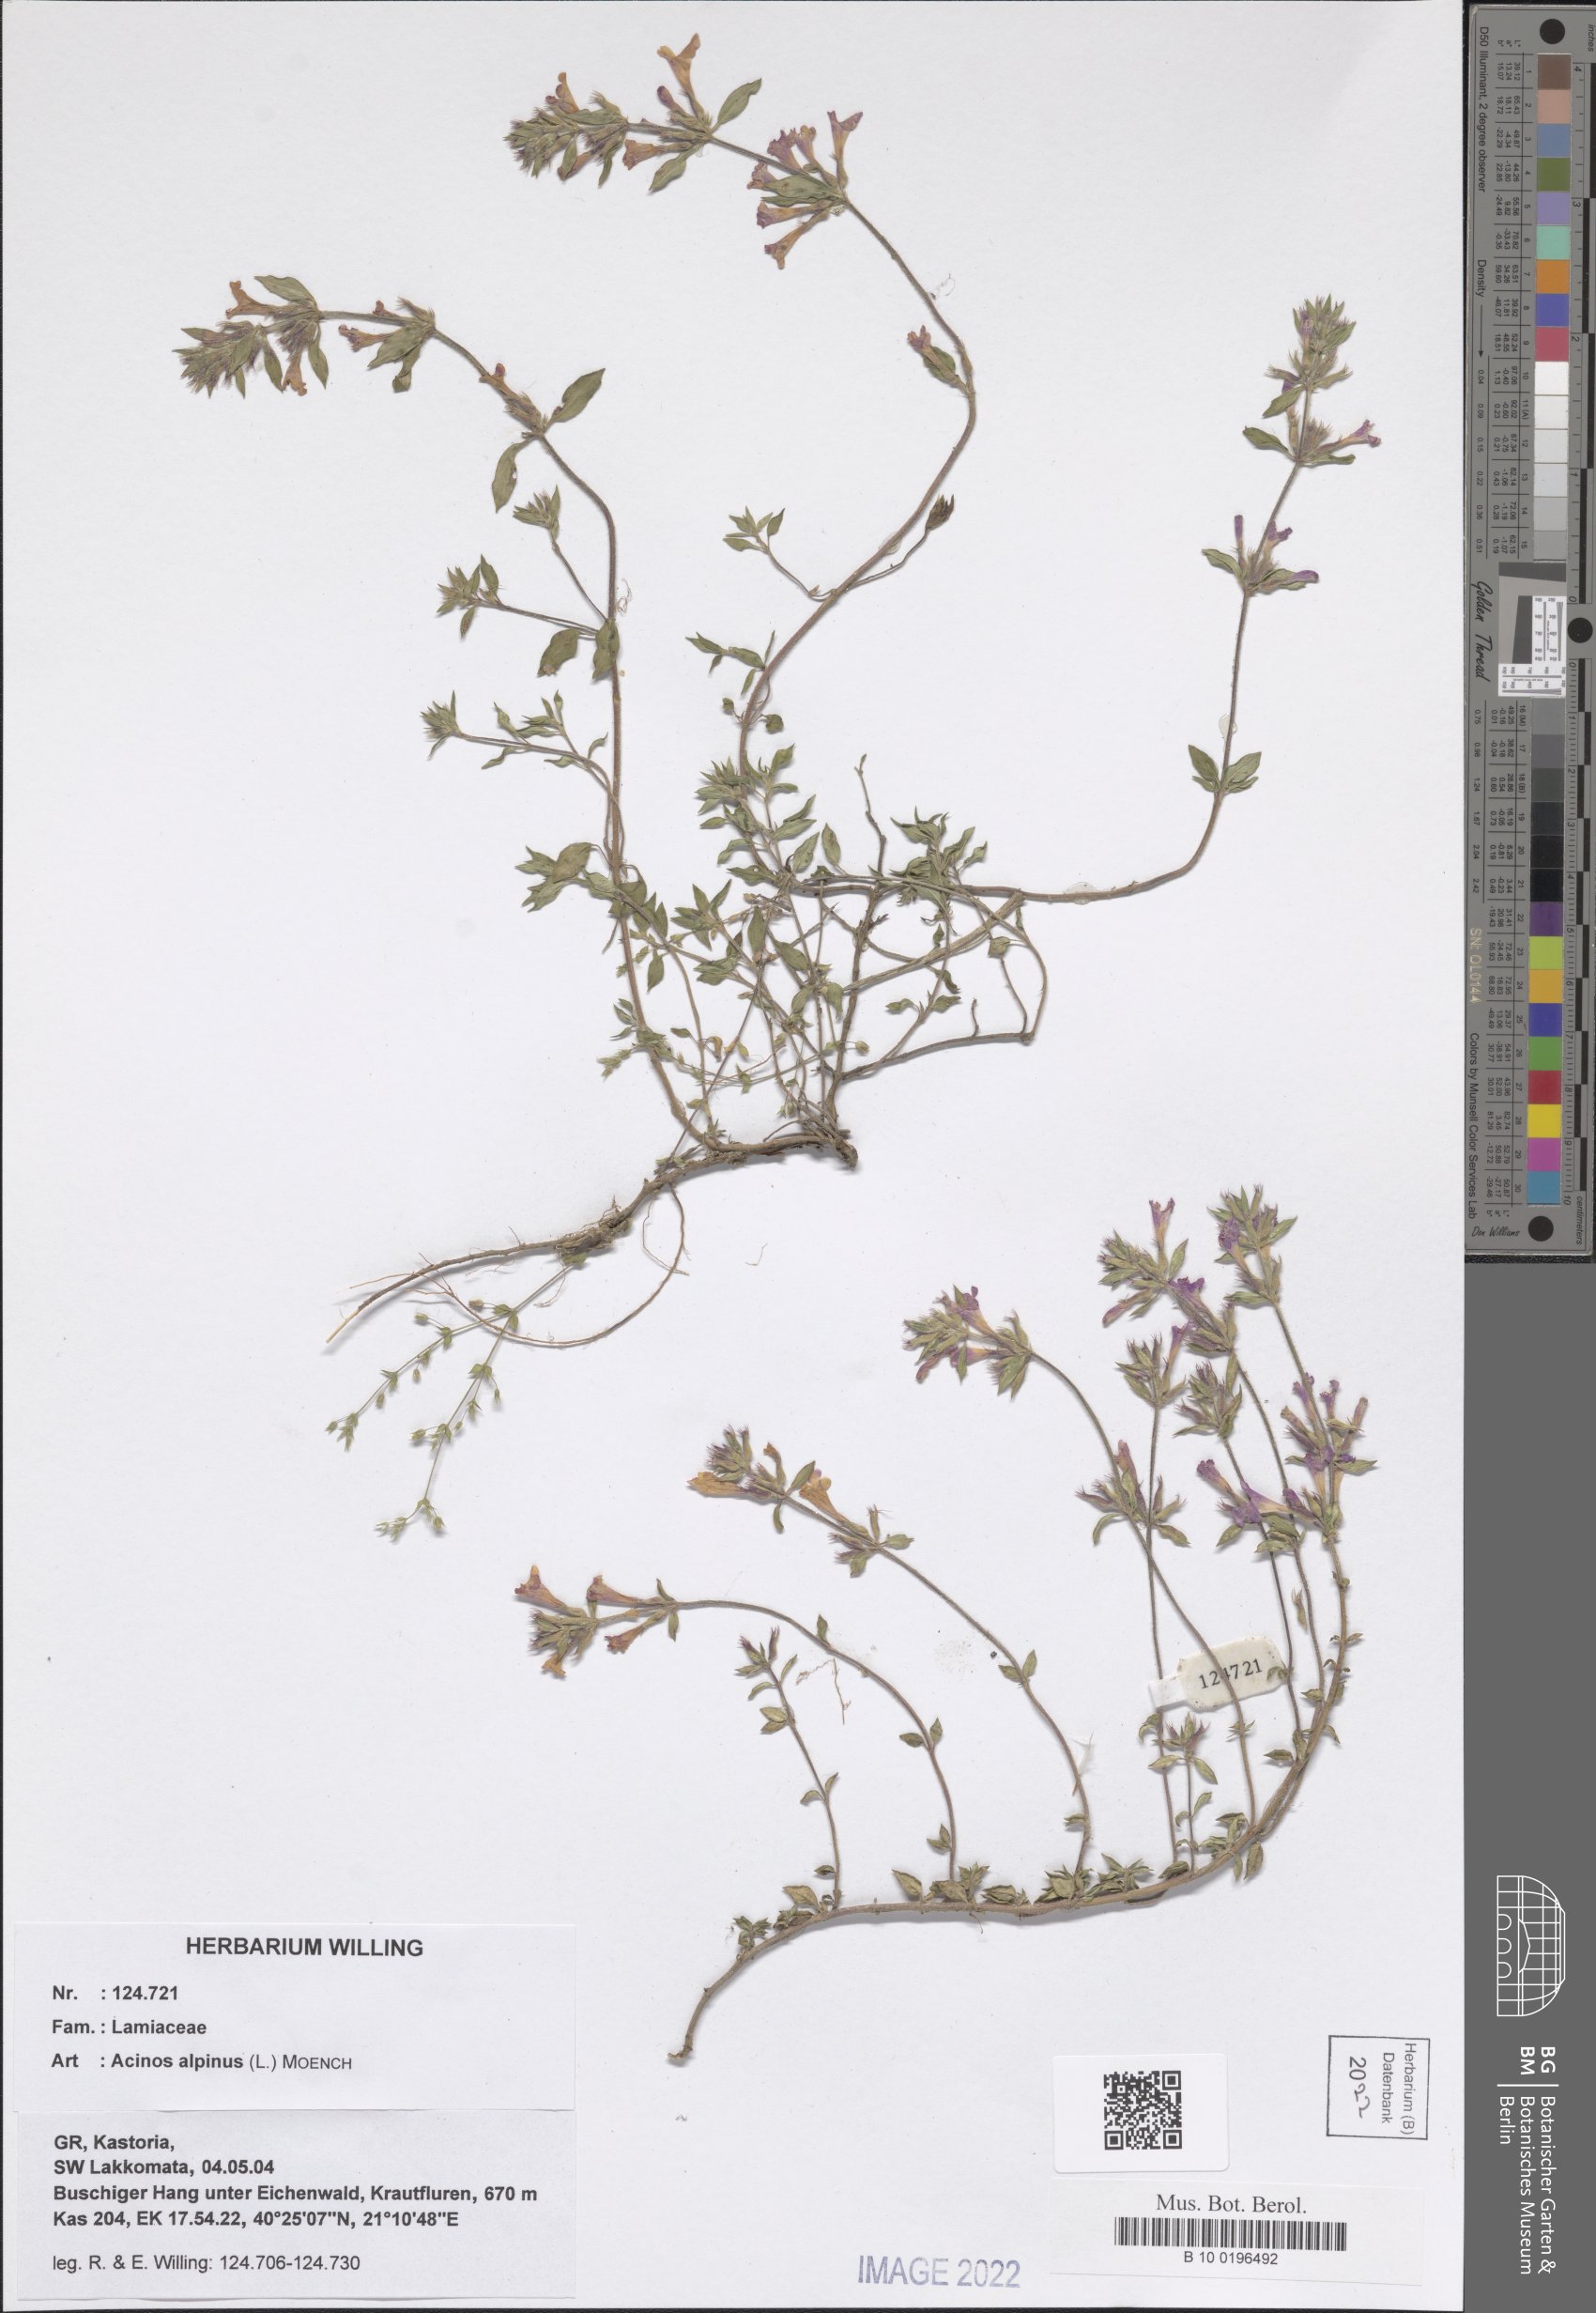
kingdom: Plantae
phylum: Tracheophyta
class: Magnoliopsida
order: Lamiales
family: Lamiaceae
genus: Clinopodium
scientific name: Clinopodium alpinum
